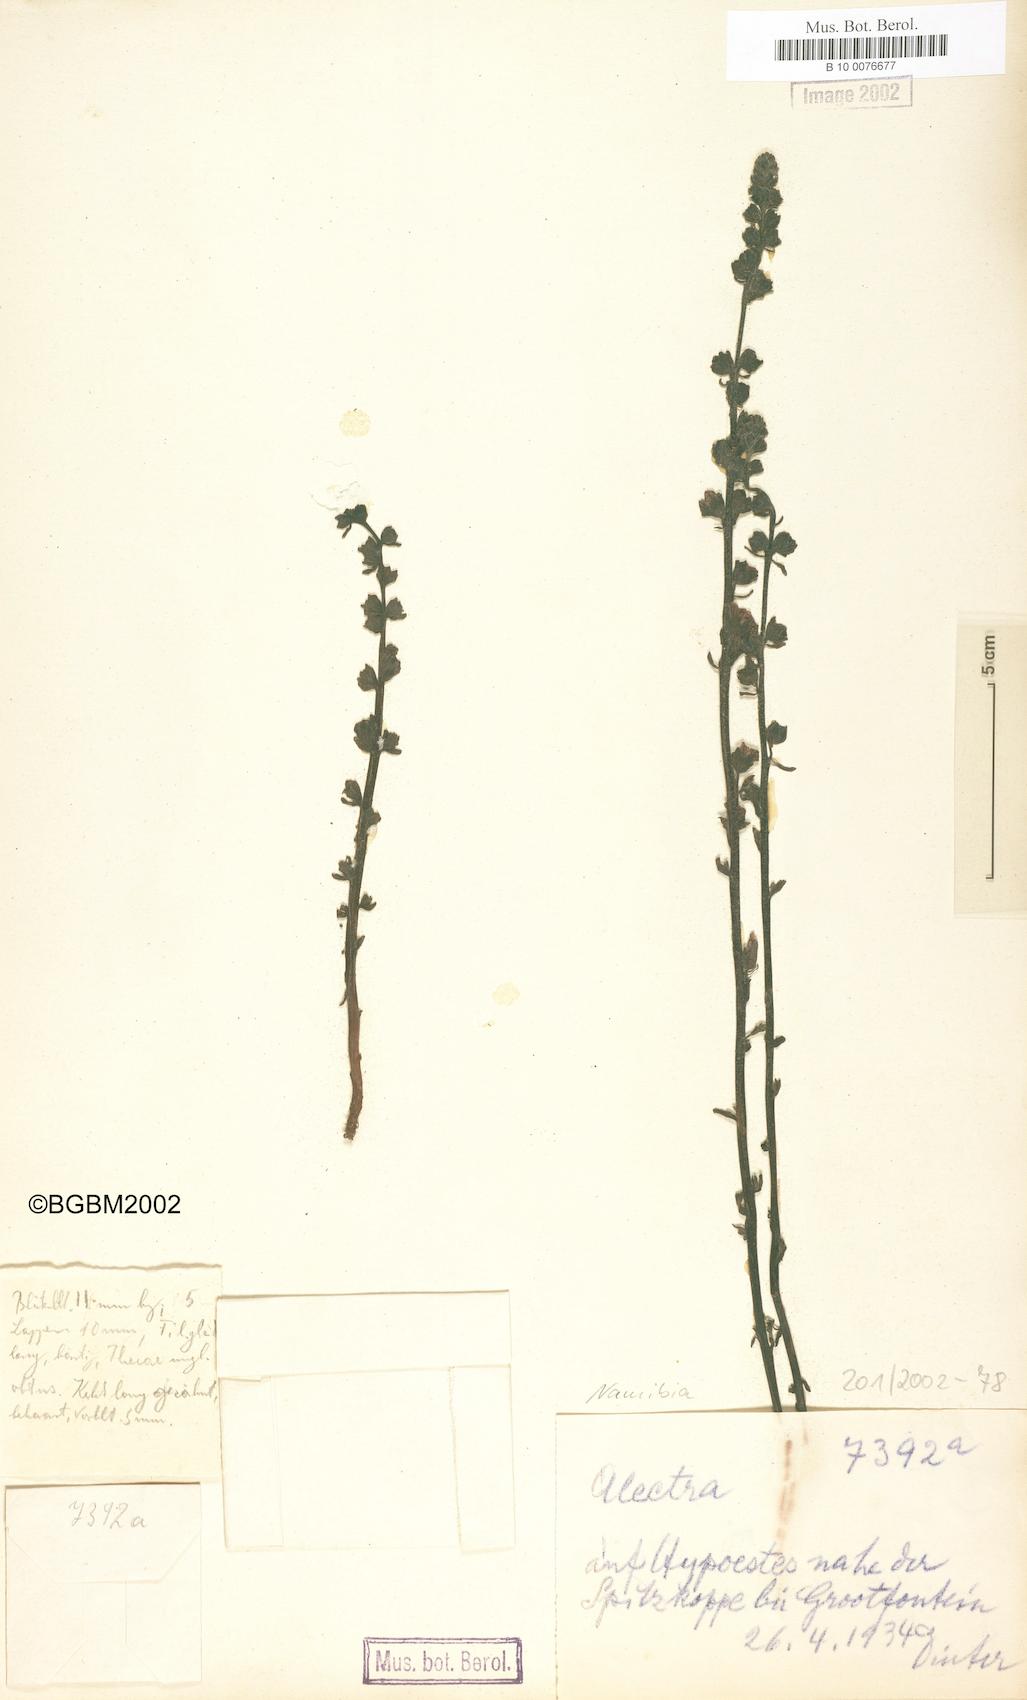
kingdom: Plantae
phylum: Tracheophyta
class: Magnoliopsida
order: Lamiales
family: Orobanchaceae
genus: Alectra
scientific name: Alectra
